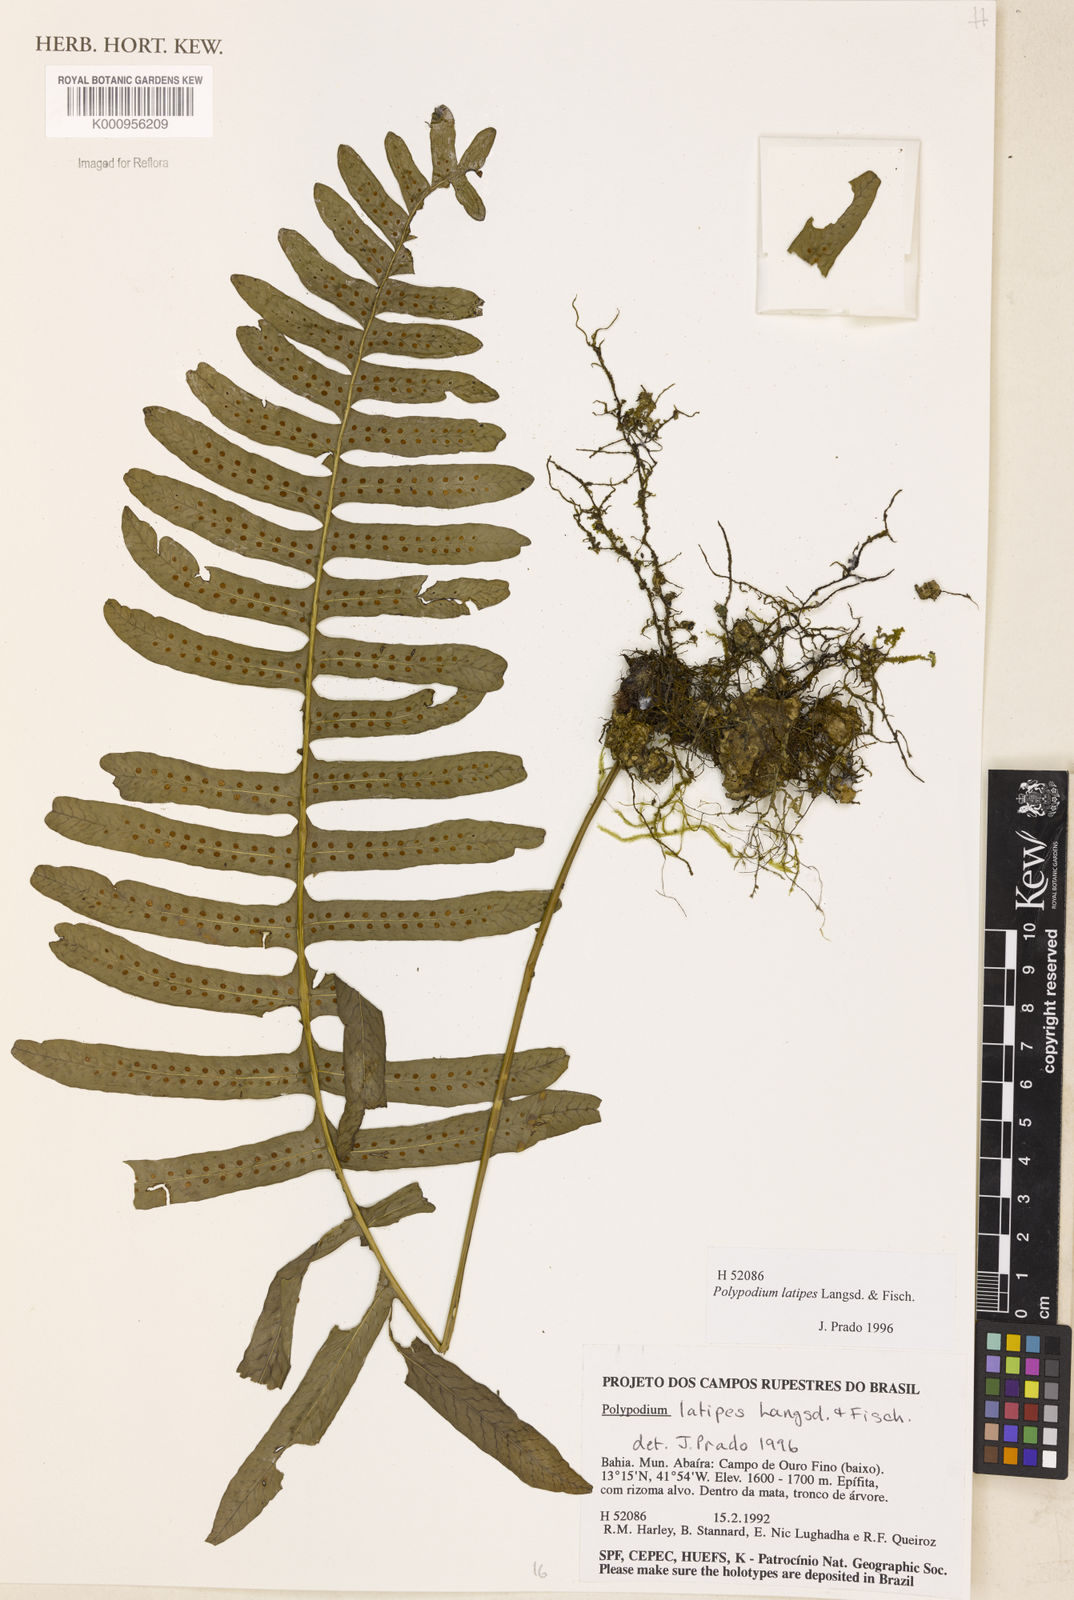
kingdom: Plantae
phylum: Tracheophyta
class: Polypodiopsida
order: Polypodiales
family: Polypodiaceae
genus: Serpocaulon
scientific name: Serpocaulon latipes
